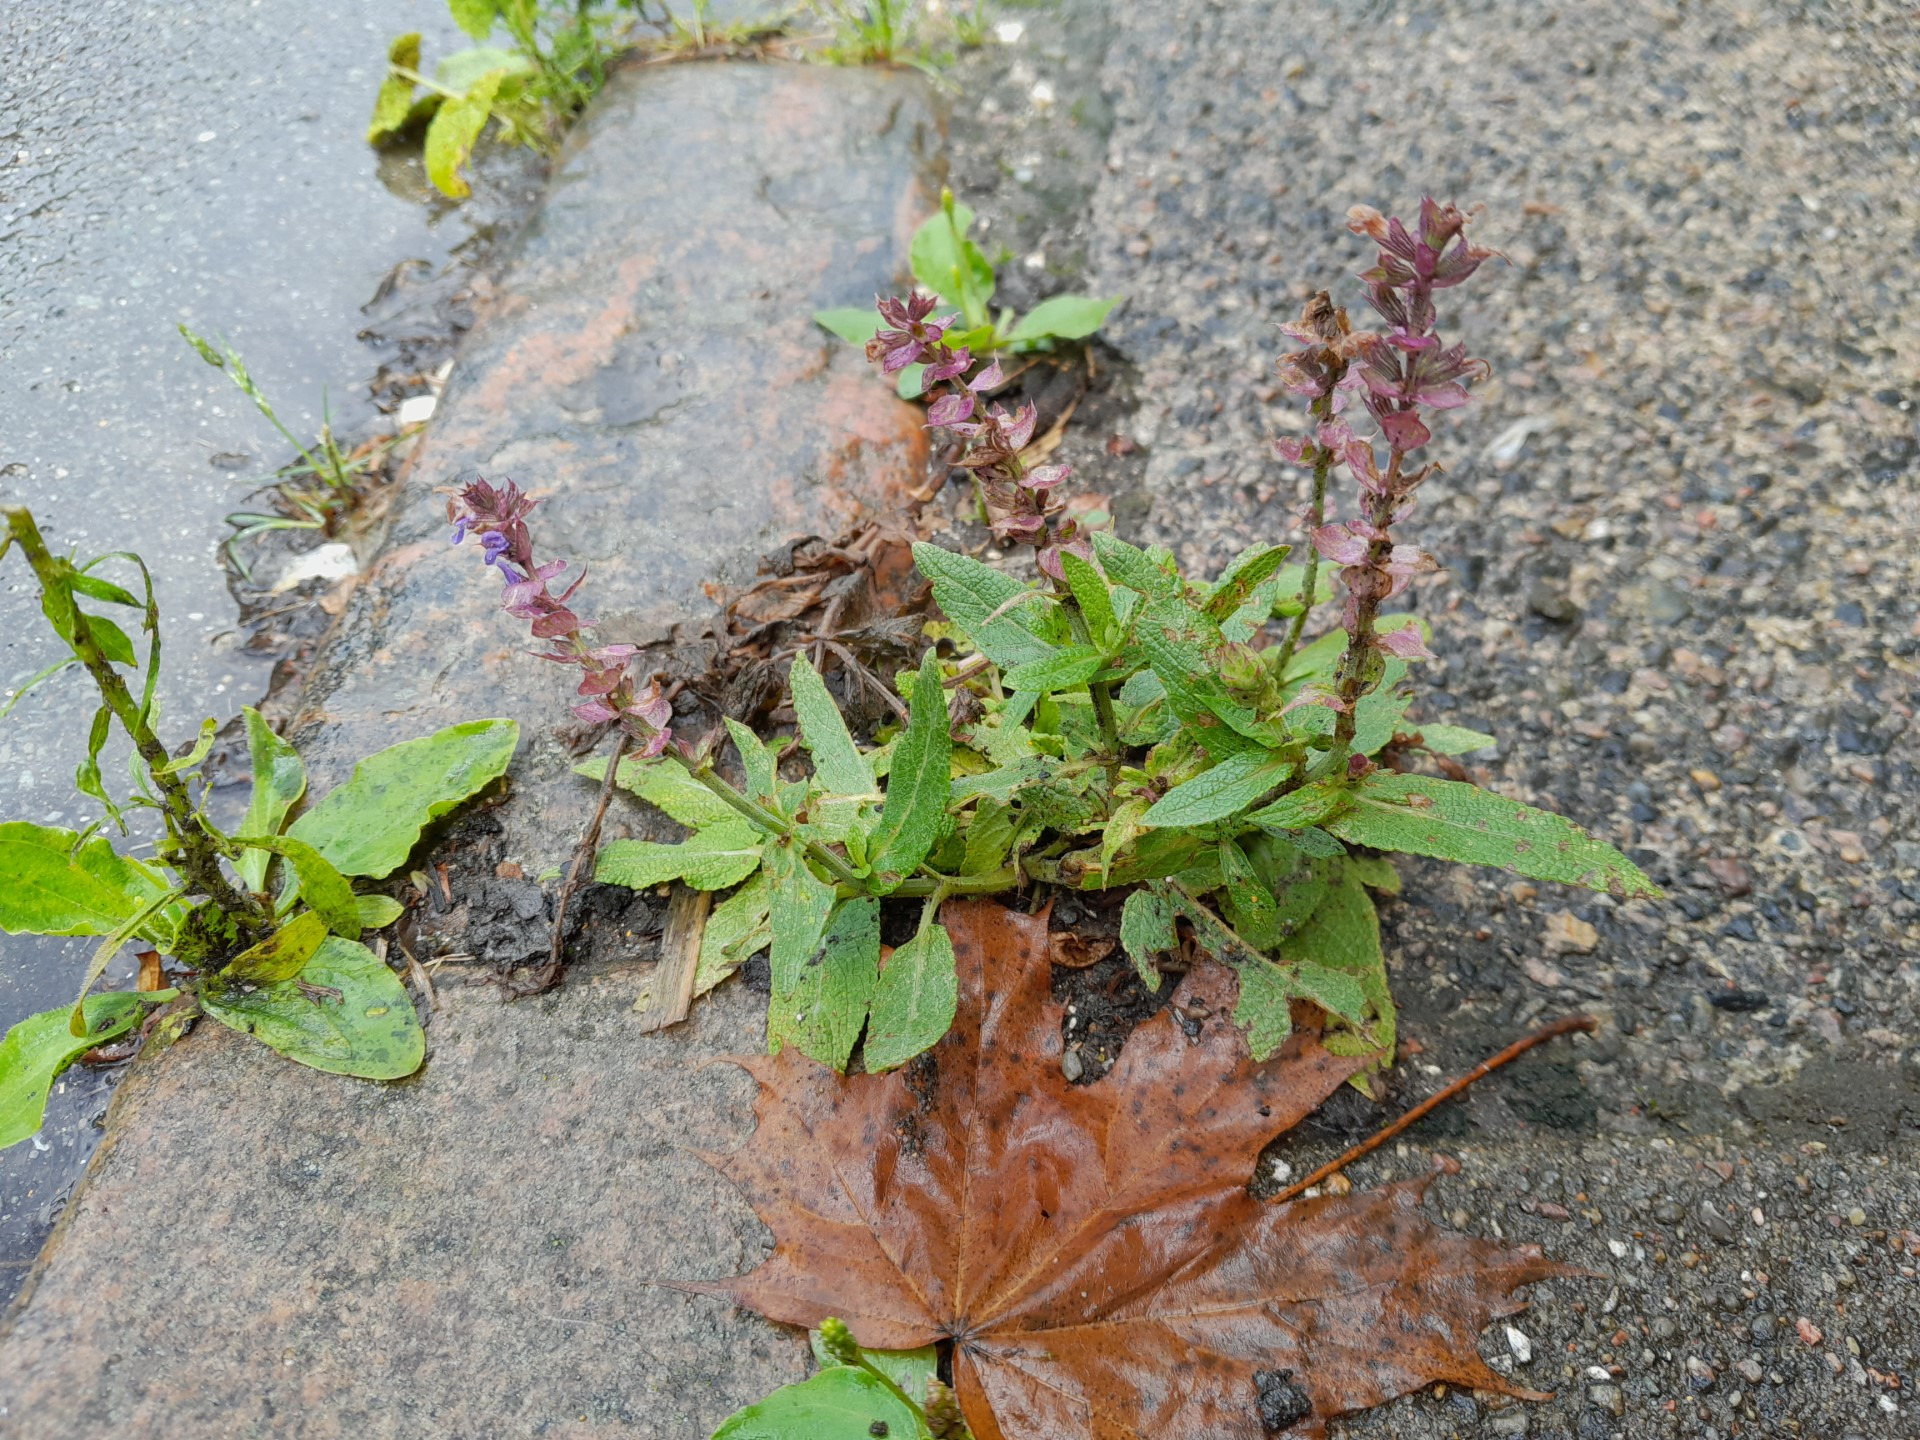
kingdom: Plantae
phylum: Tracheophyta
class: Magnoliopsida
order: Lamiales
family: Lamiaceae
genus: Salvia
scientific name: Salvia nemorosa
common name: Småblomstret salvie
